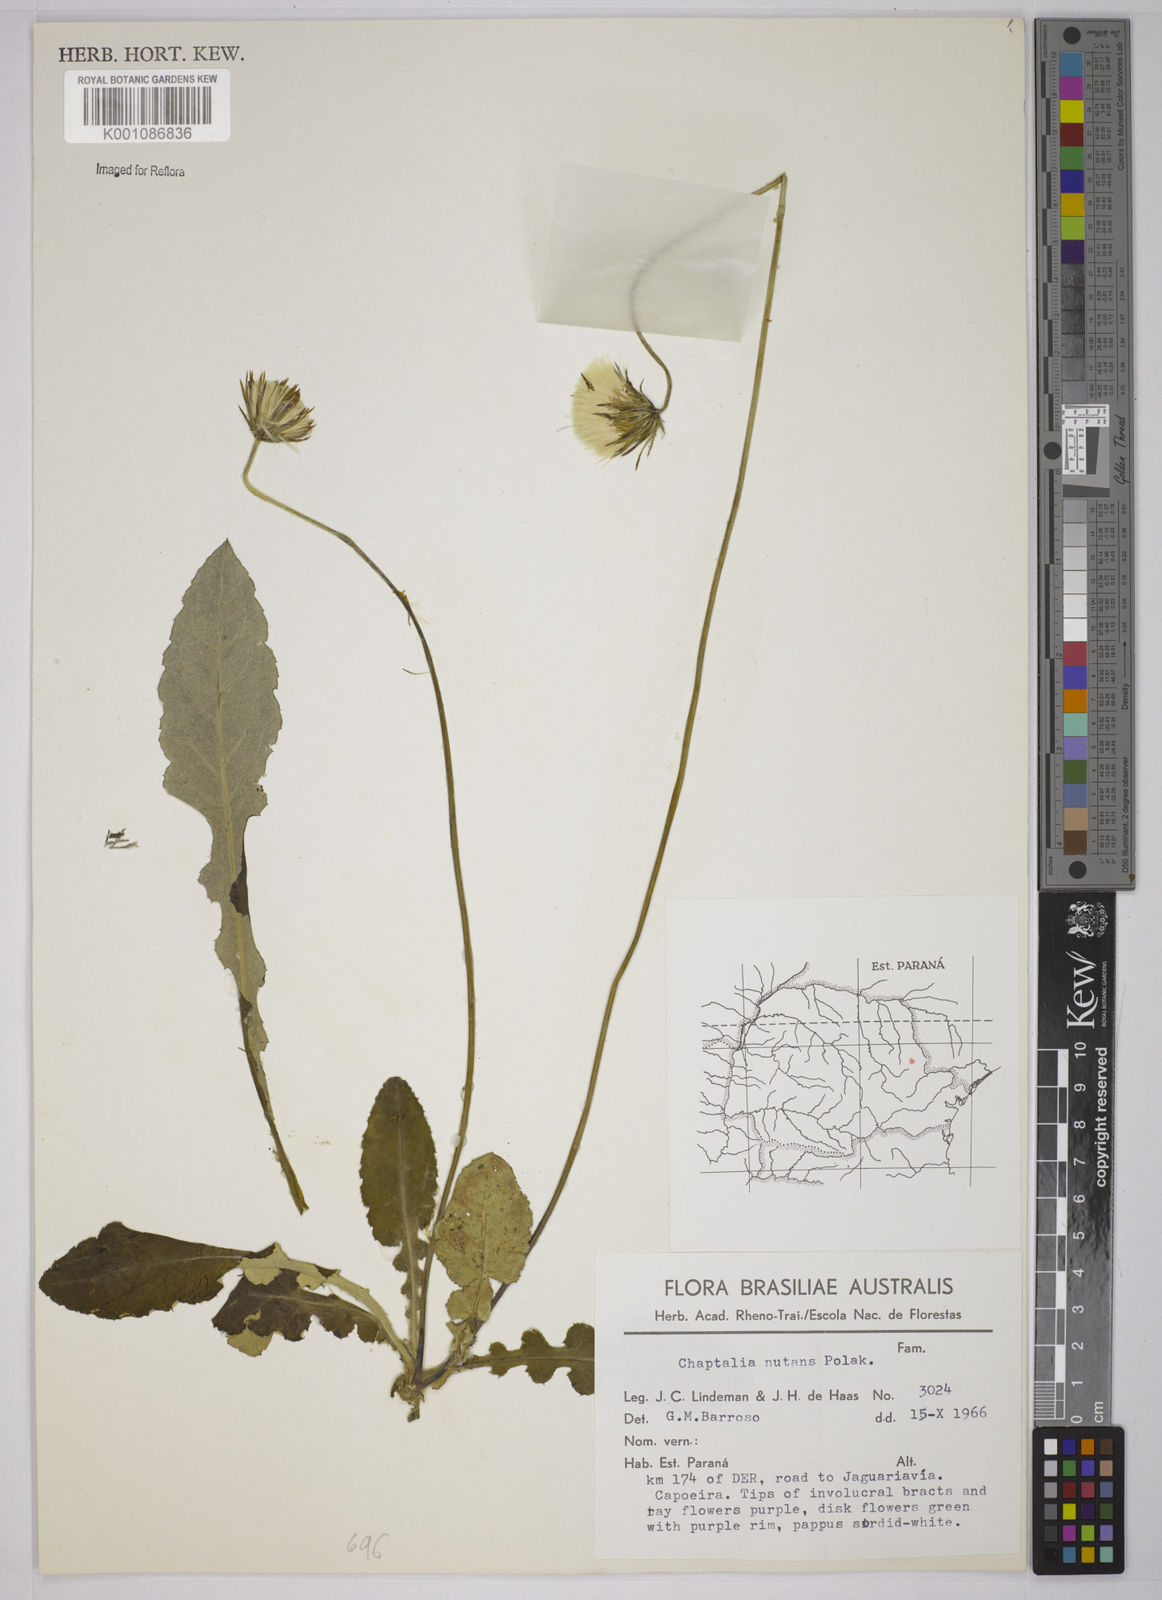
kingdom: Plantae
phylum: Tracheophyta
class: Magnoliopsida
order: Asterales
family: Asteraceae
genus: Chaptalia
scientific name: Chaptalia nutans
